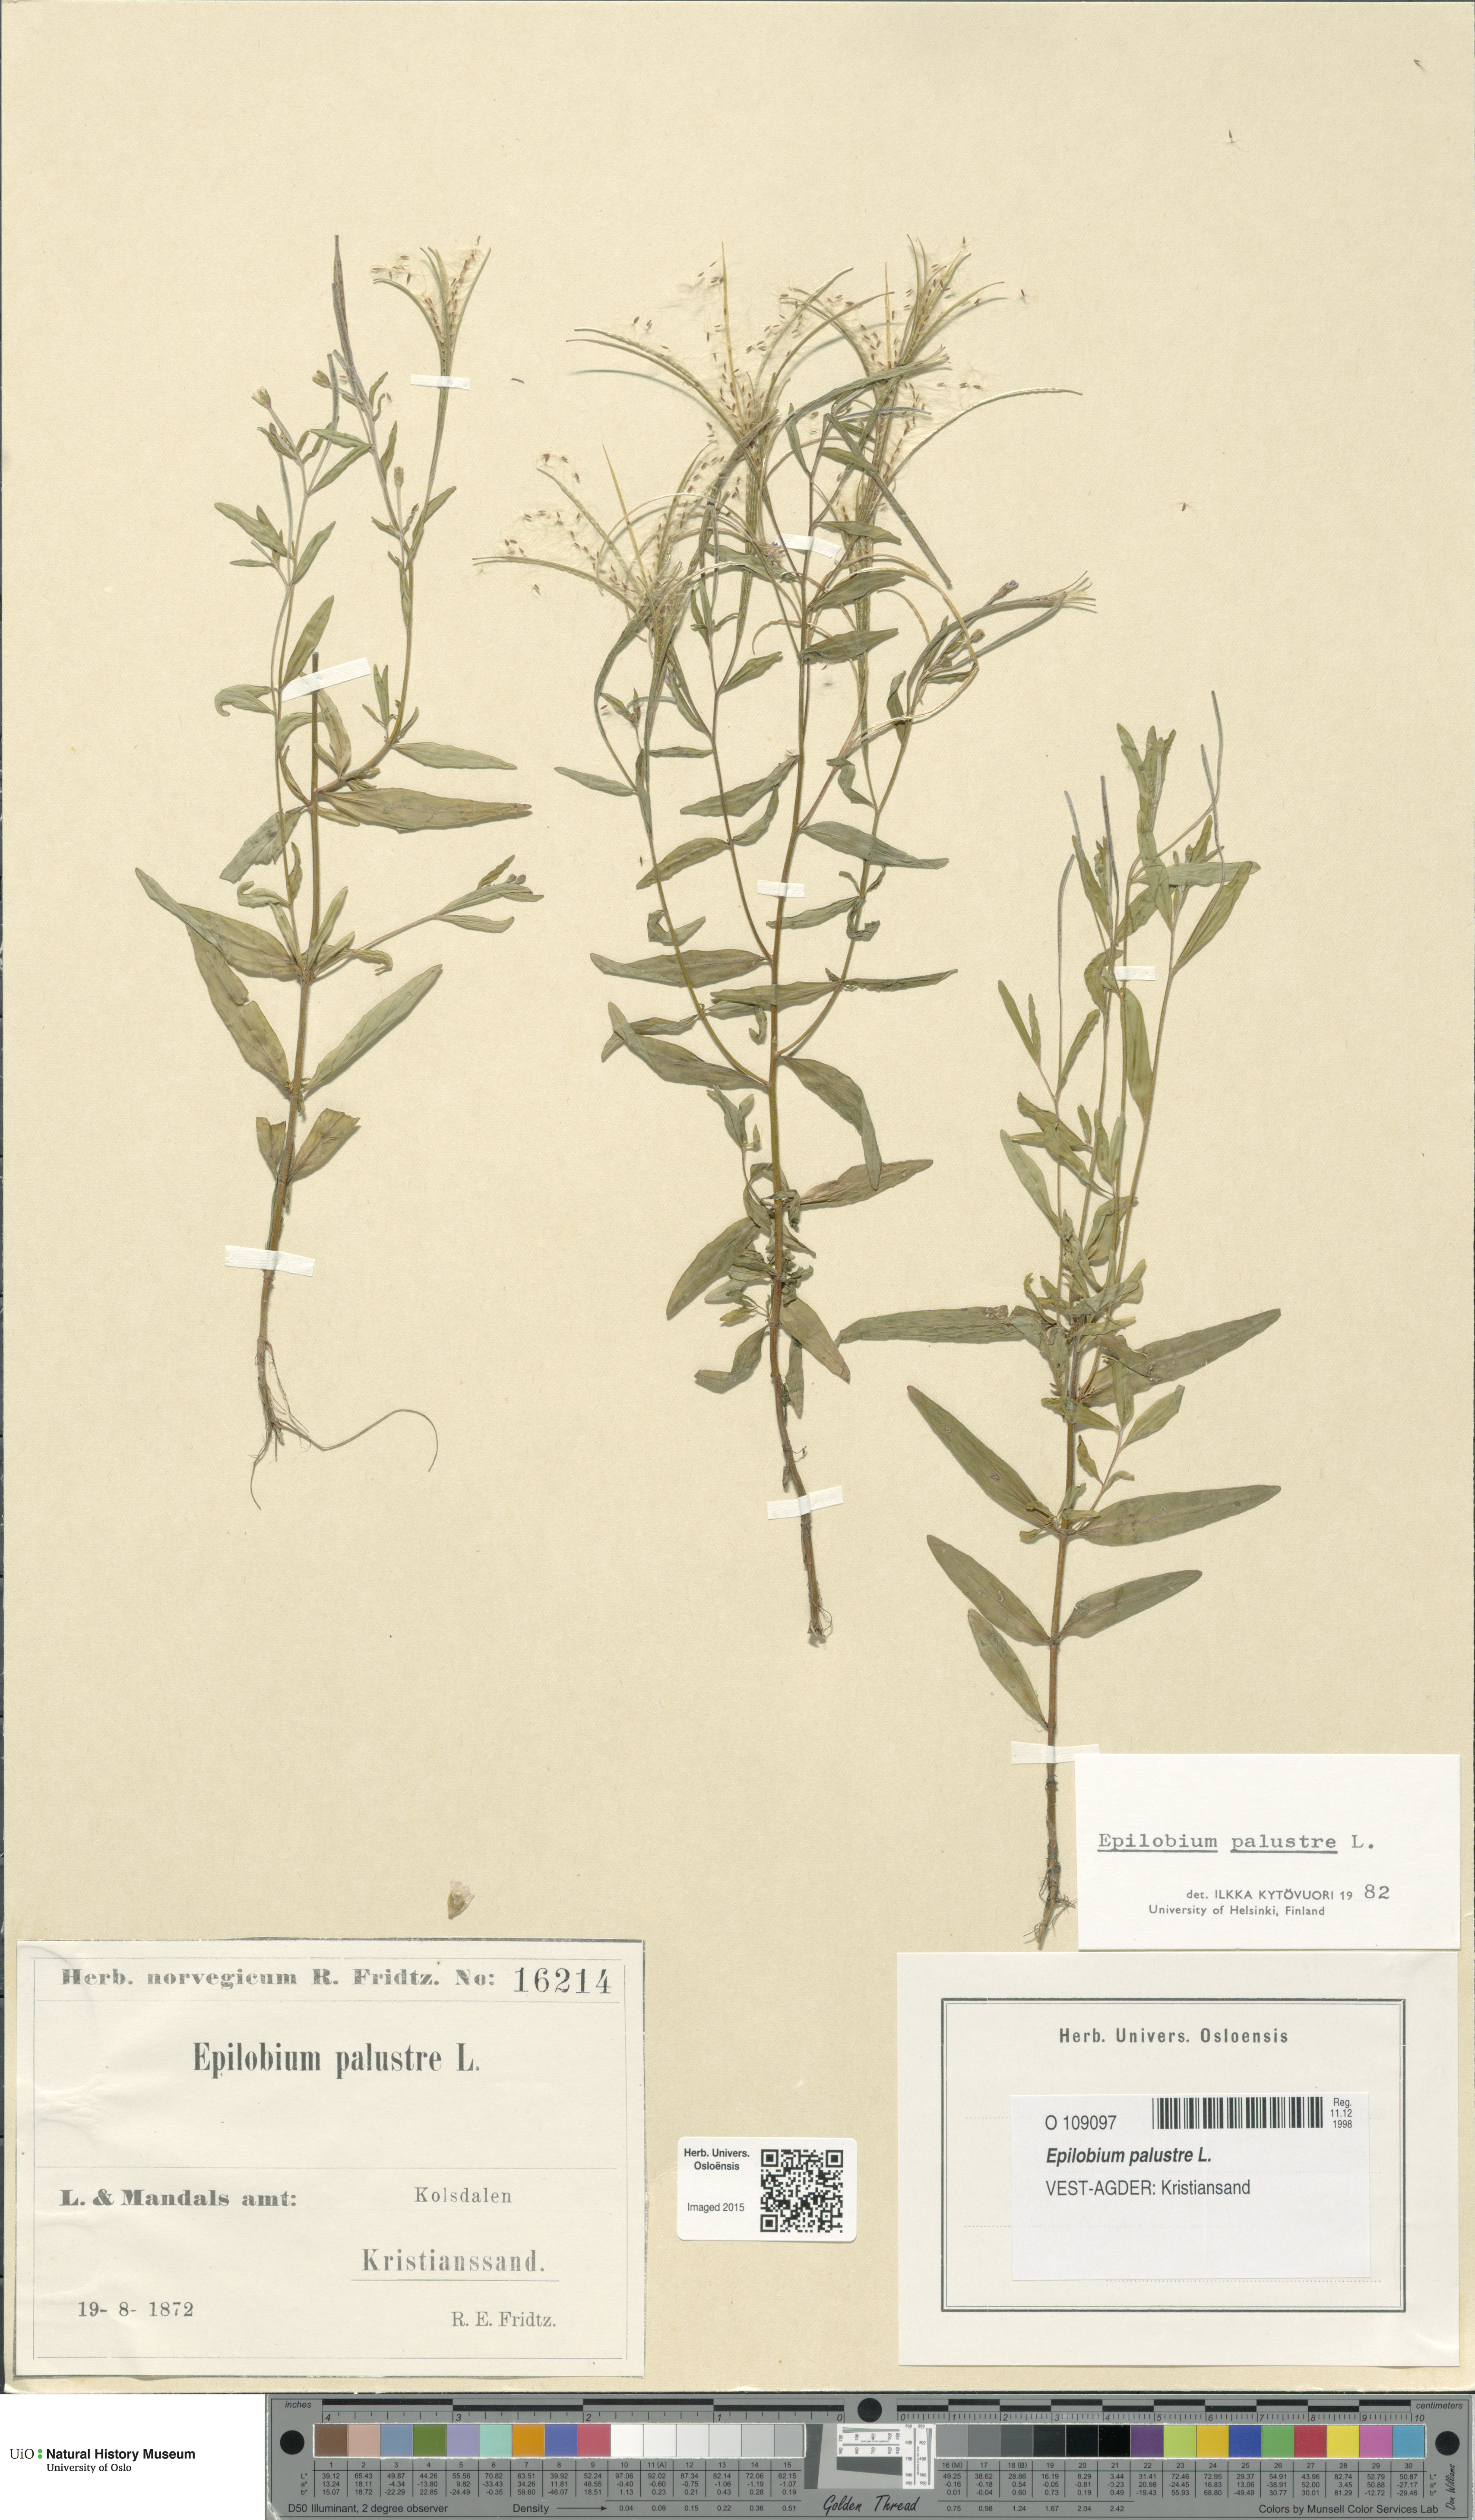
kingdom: Plantae
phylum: Tracheophyta
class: Magnoliopsida
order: Myrtales
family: Onagraceae
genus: Epilobium
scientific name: Epilobium palustre
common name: Marsh willowherb
